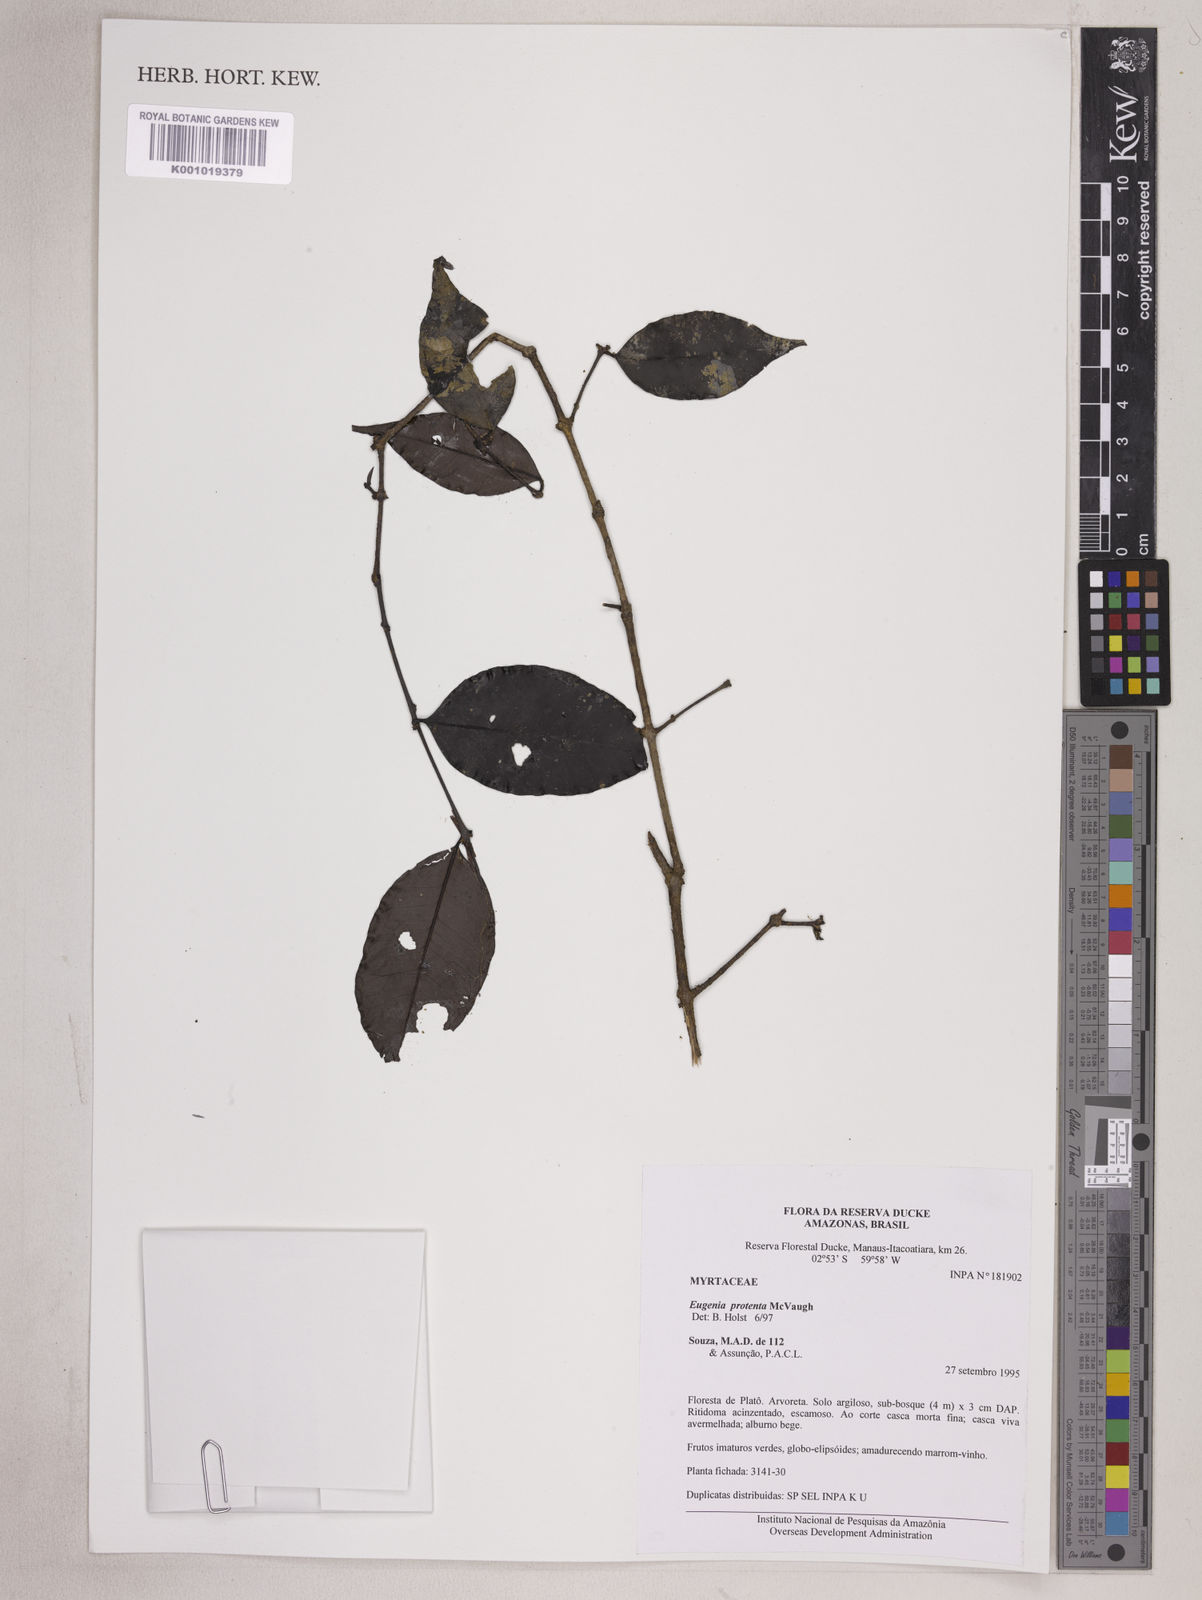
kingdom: Plantae
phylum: Tracheophyta
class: Magnoliopsida
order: Myrtales
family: Myrtaceae
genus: Eugenia
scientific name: Eugenia protenta
